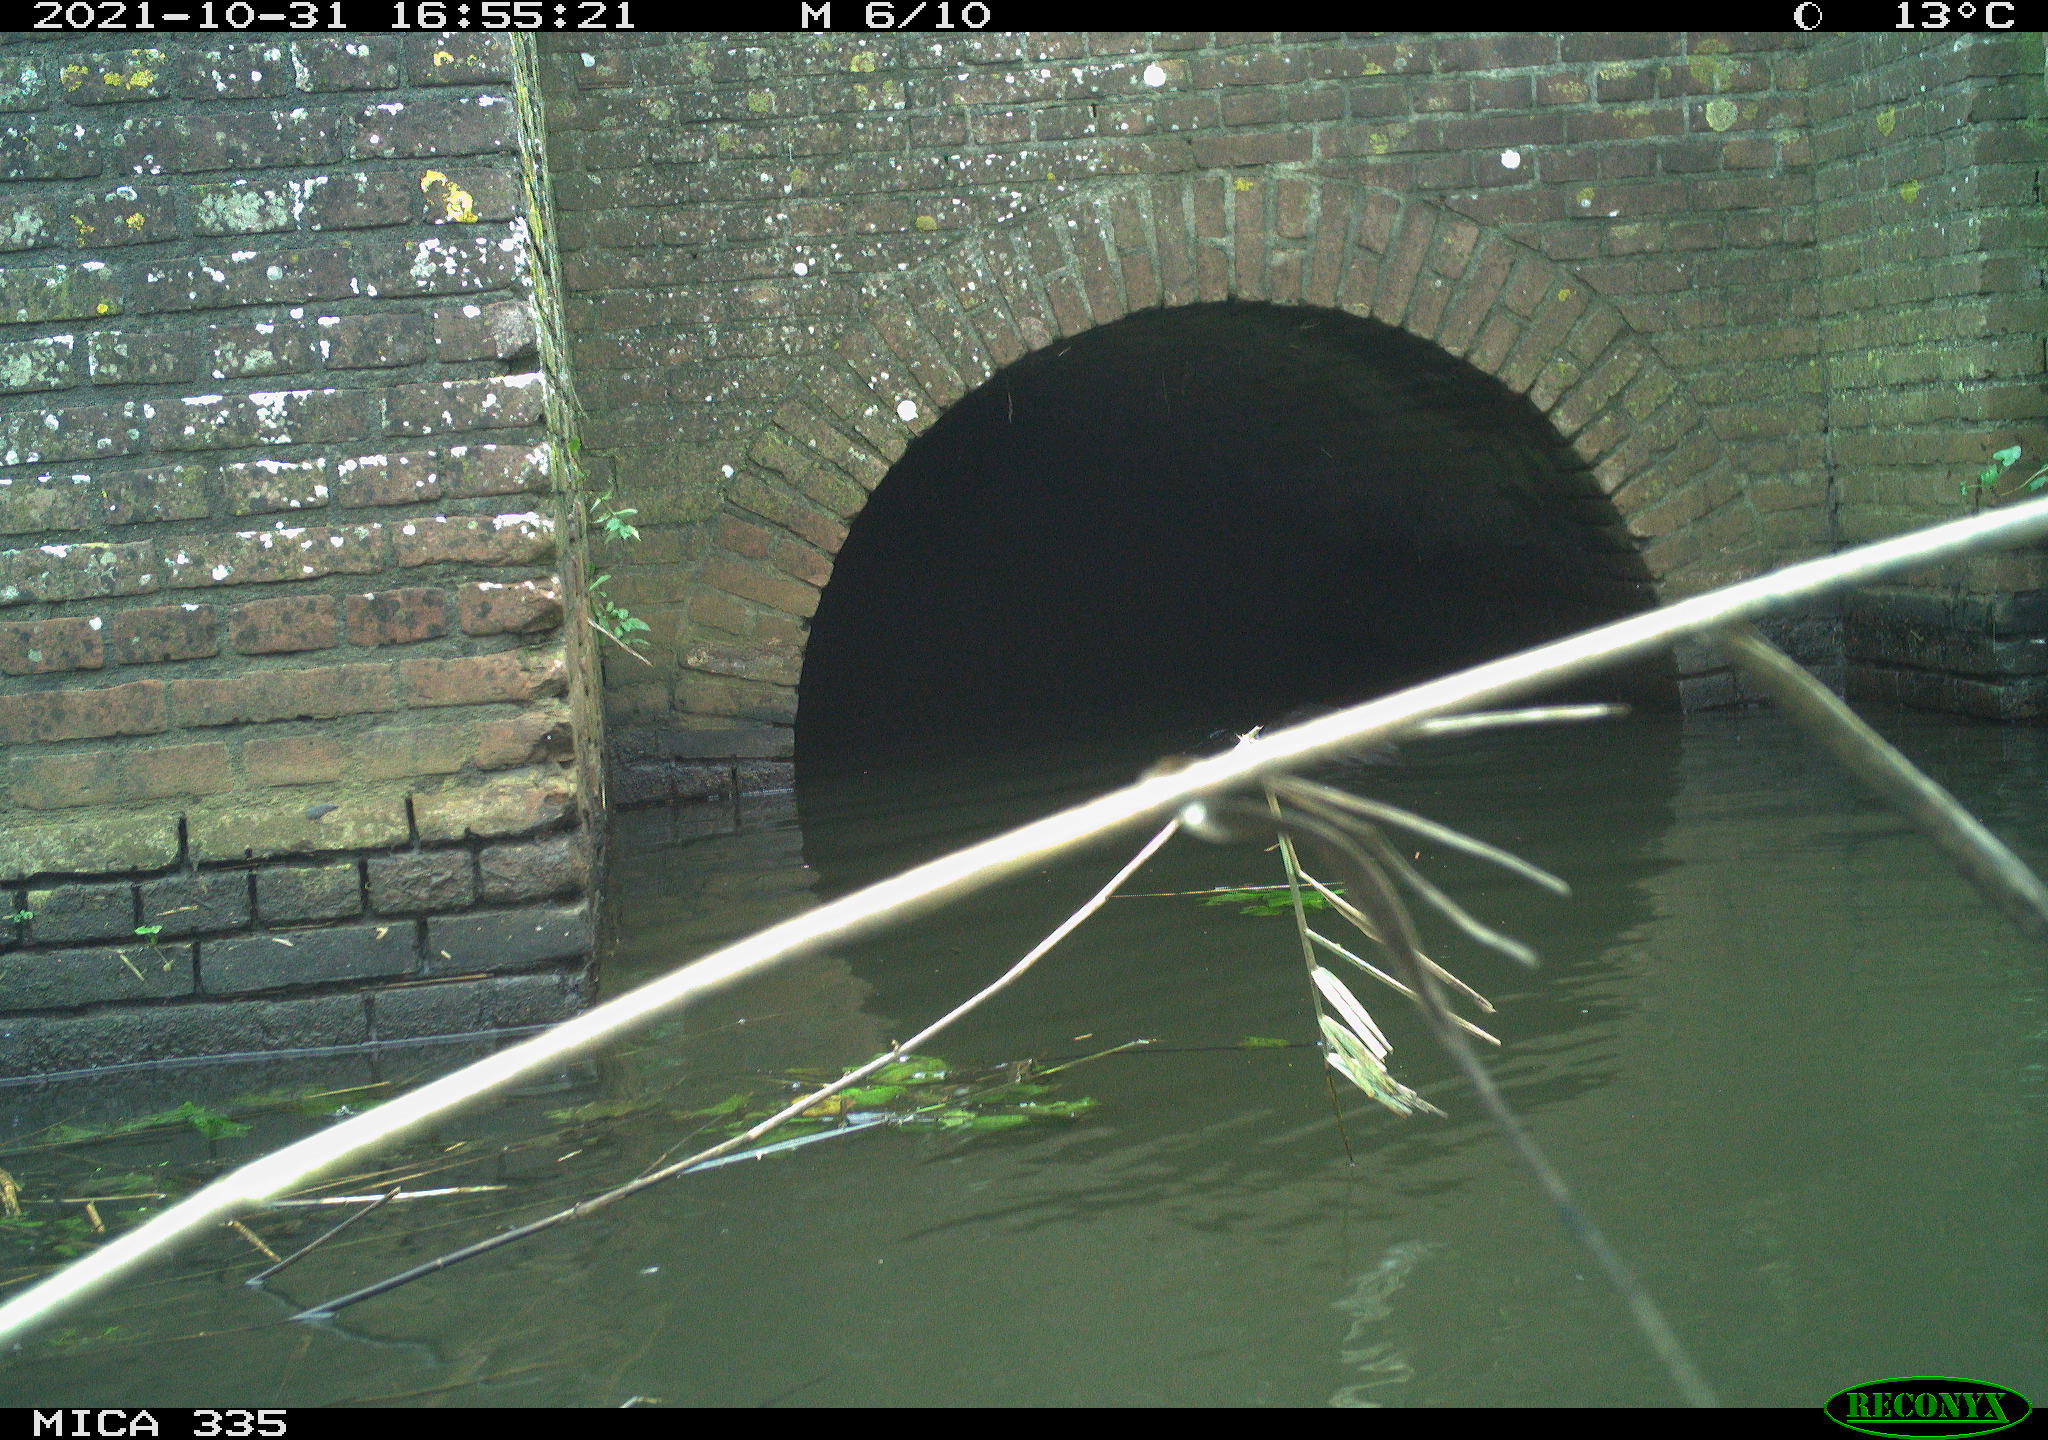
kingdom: Animalia
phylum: Chordata
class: Aves
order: Suliformes
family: Phalacrocoracidae
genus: Phalacrocorax
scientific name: Phalacrocorax carbo
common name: Great cormorant
